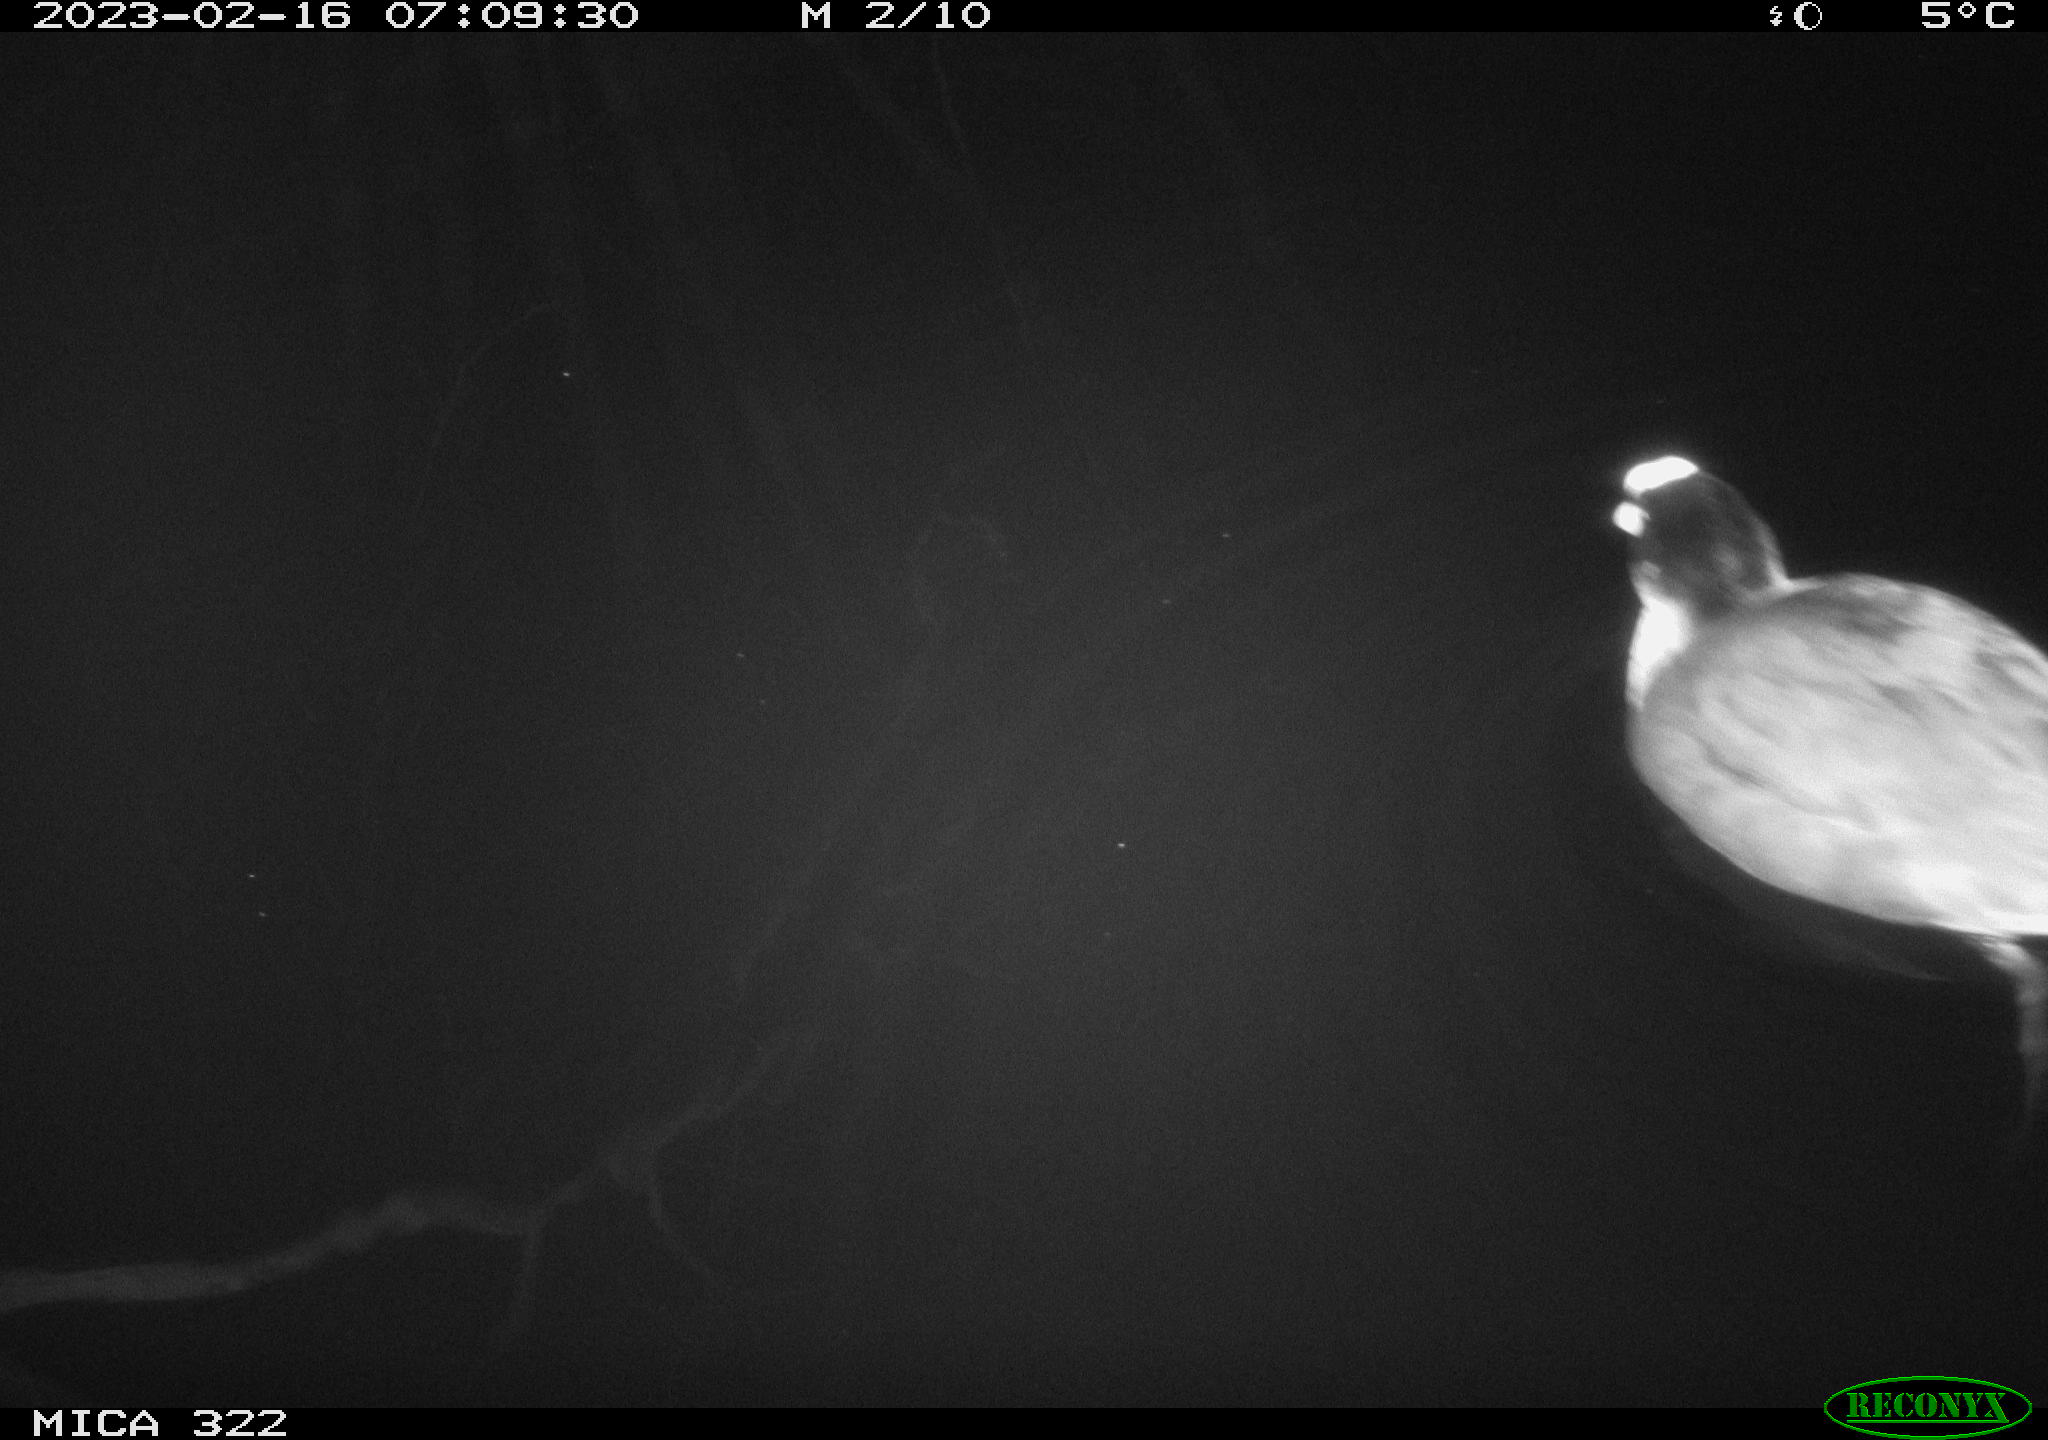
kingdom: Animalia
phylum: Chordata
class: Aves
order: Anseriformes
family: Anatidae
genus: Anas
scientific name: Anas
